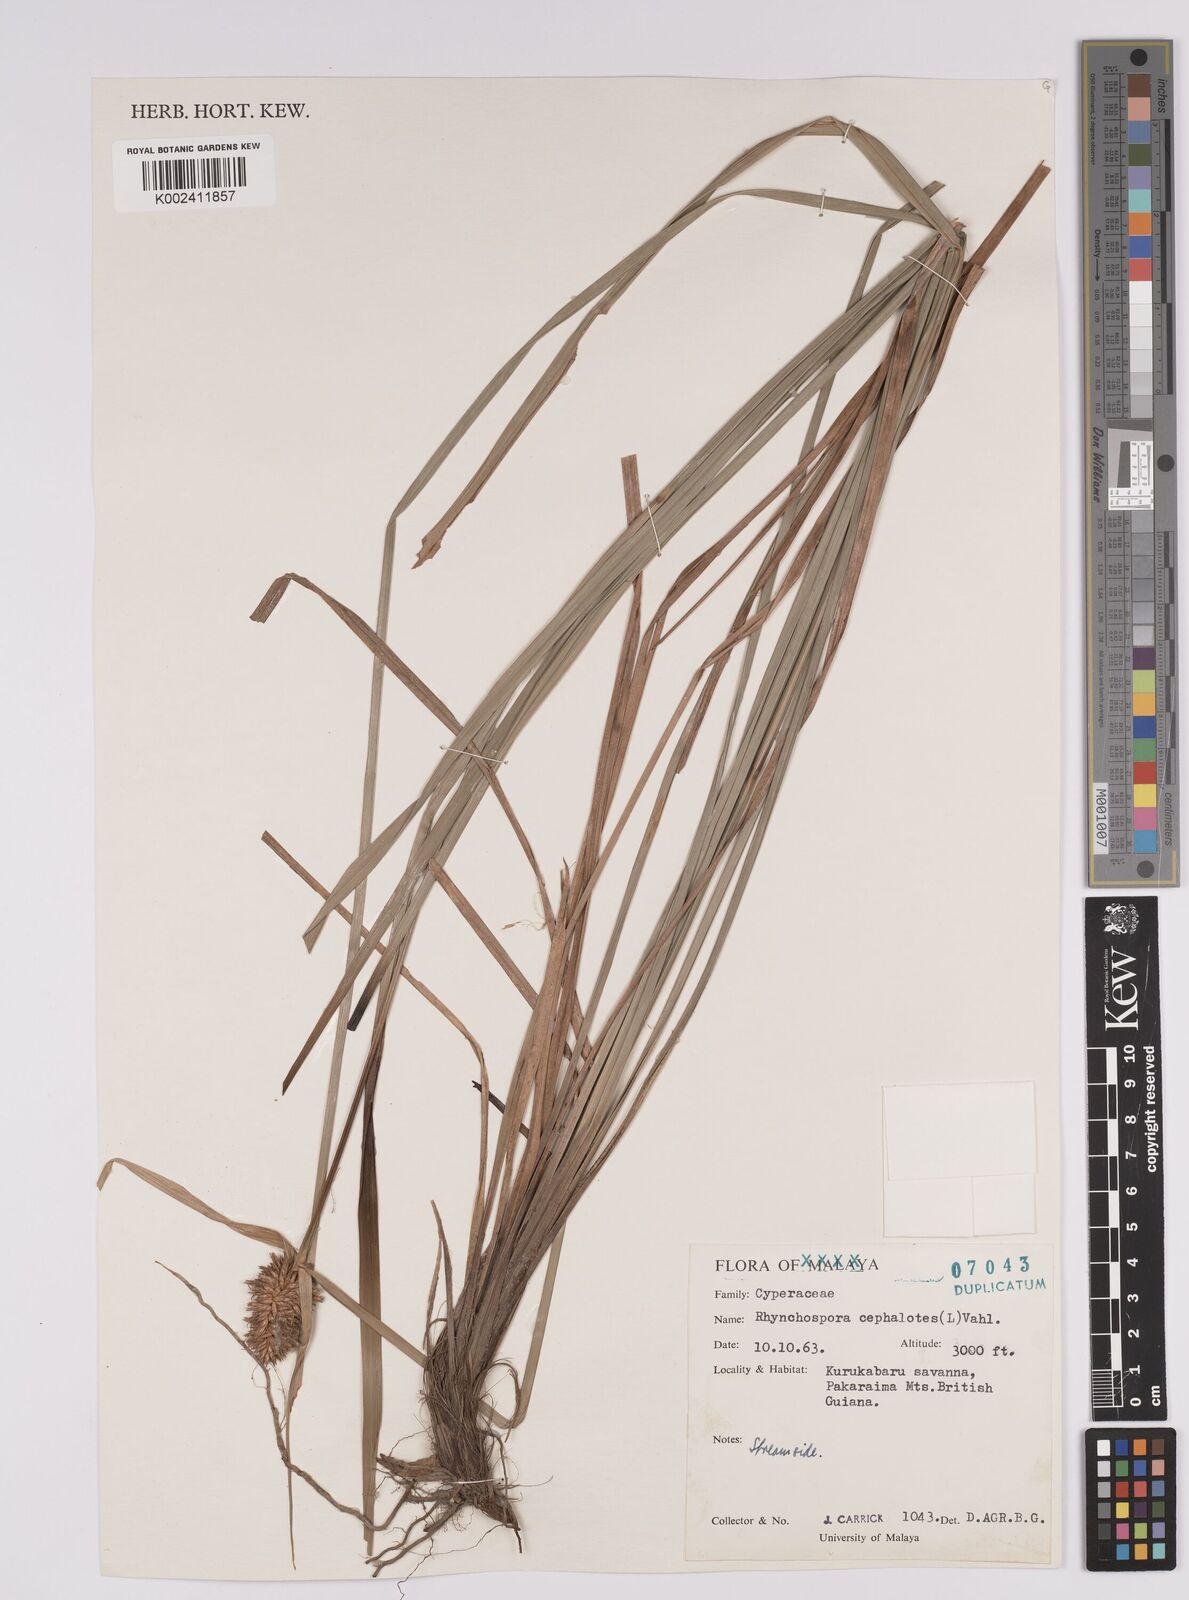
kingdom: Plantae
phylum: Tracheophyta
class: Liliopsida
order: Poales
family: Cyperaceae
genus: Rhynchospora
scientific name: Rhynchospora cephalotes
